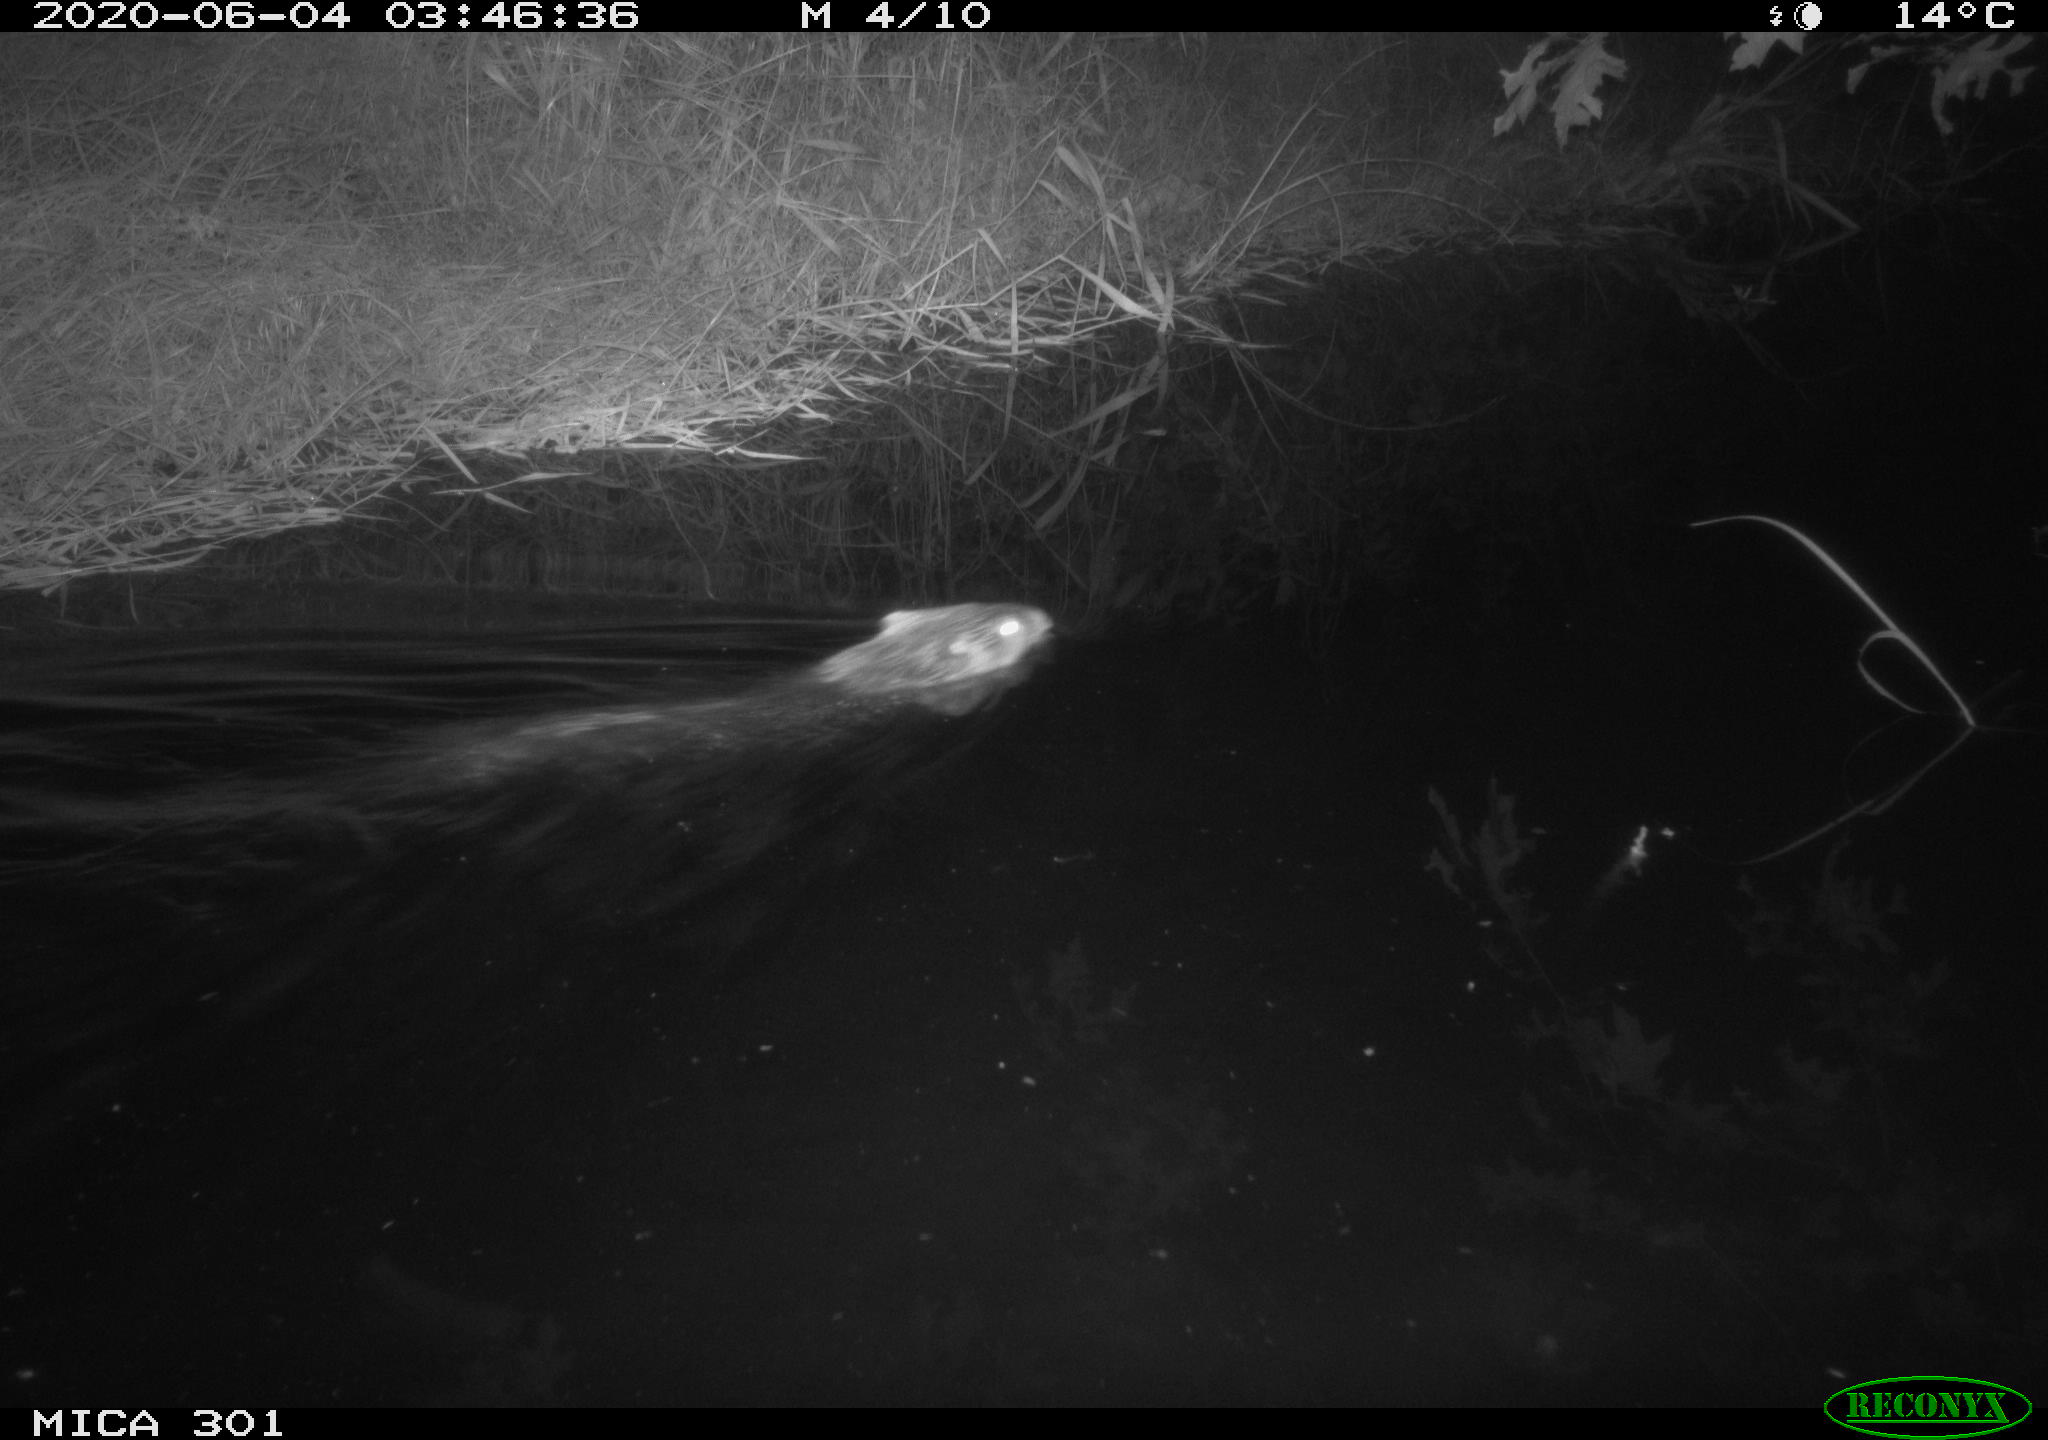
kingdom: Animalia
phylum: Chordata
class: Mammalia
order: Rodentia
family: Castoridae
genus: Castor
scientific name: Castor fiber
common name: Eurasian beaver
